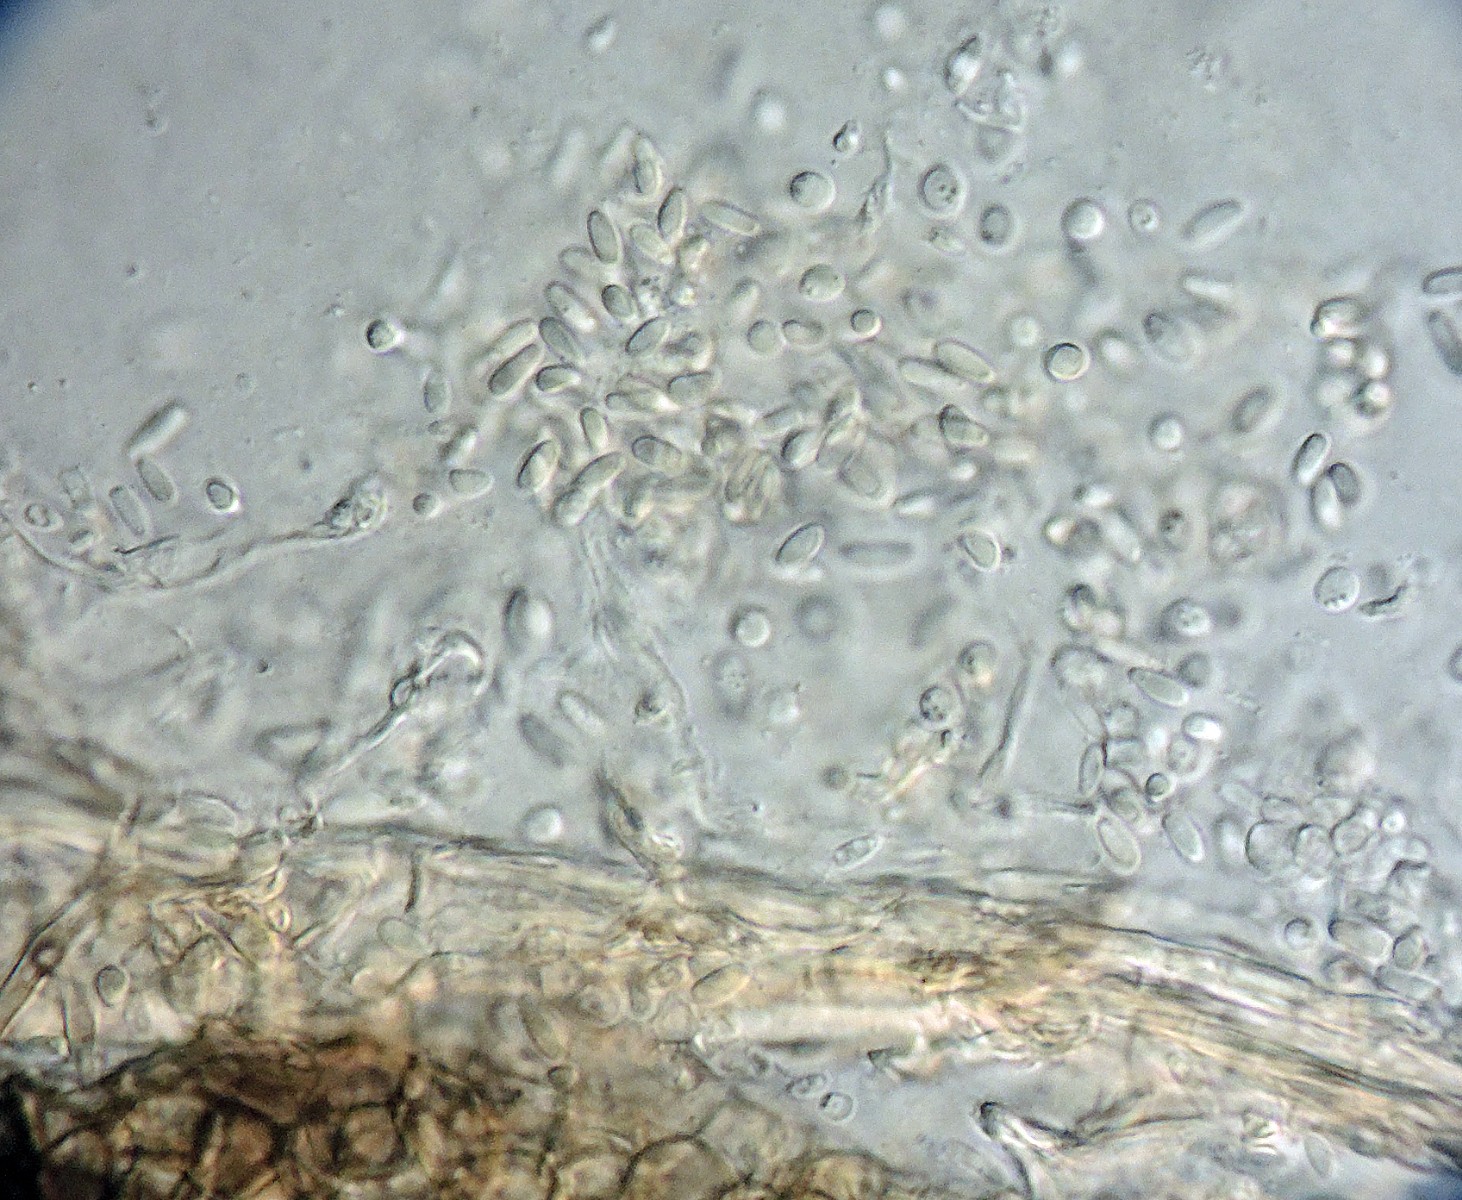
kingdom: Fungi
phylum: Ascomycota
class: Dothideomycetes
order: Pleosporales
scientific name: Pleosporales
